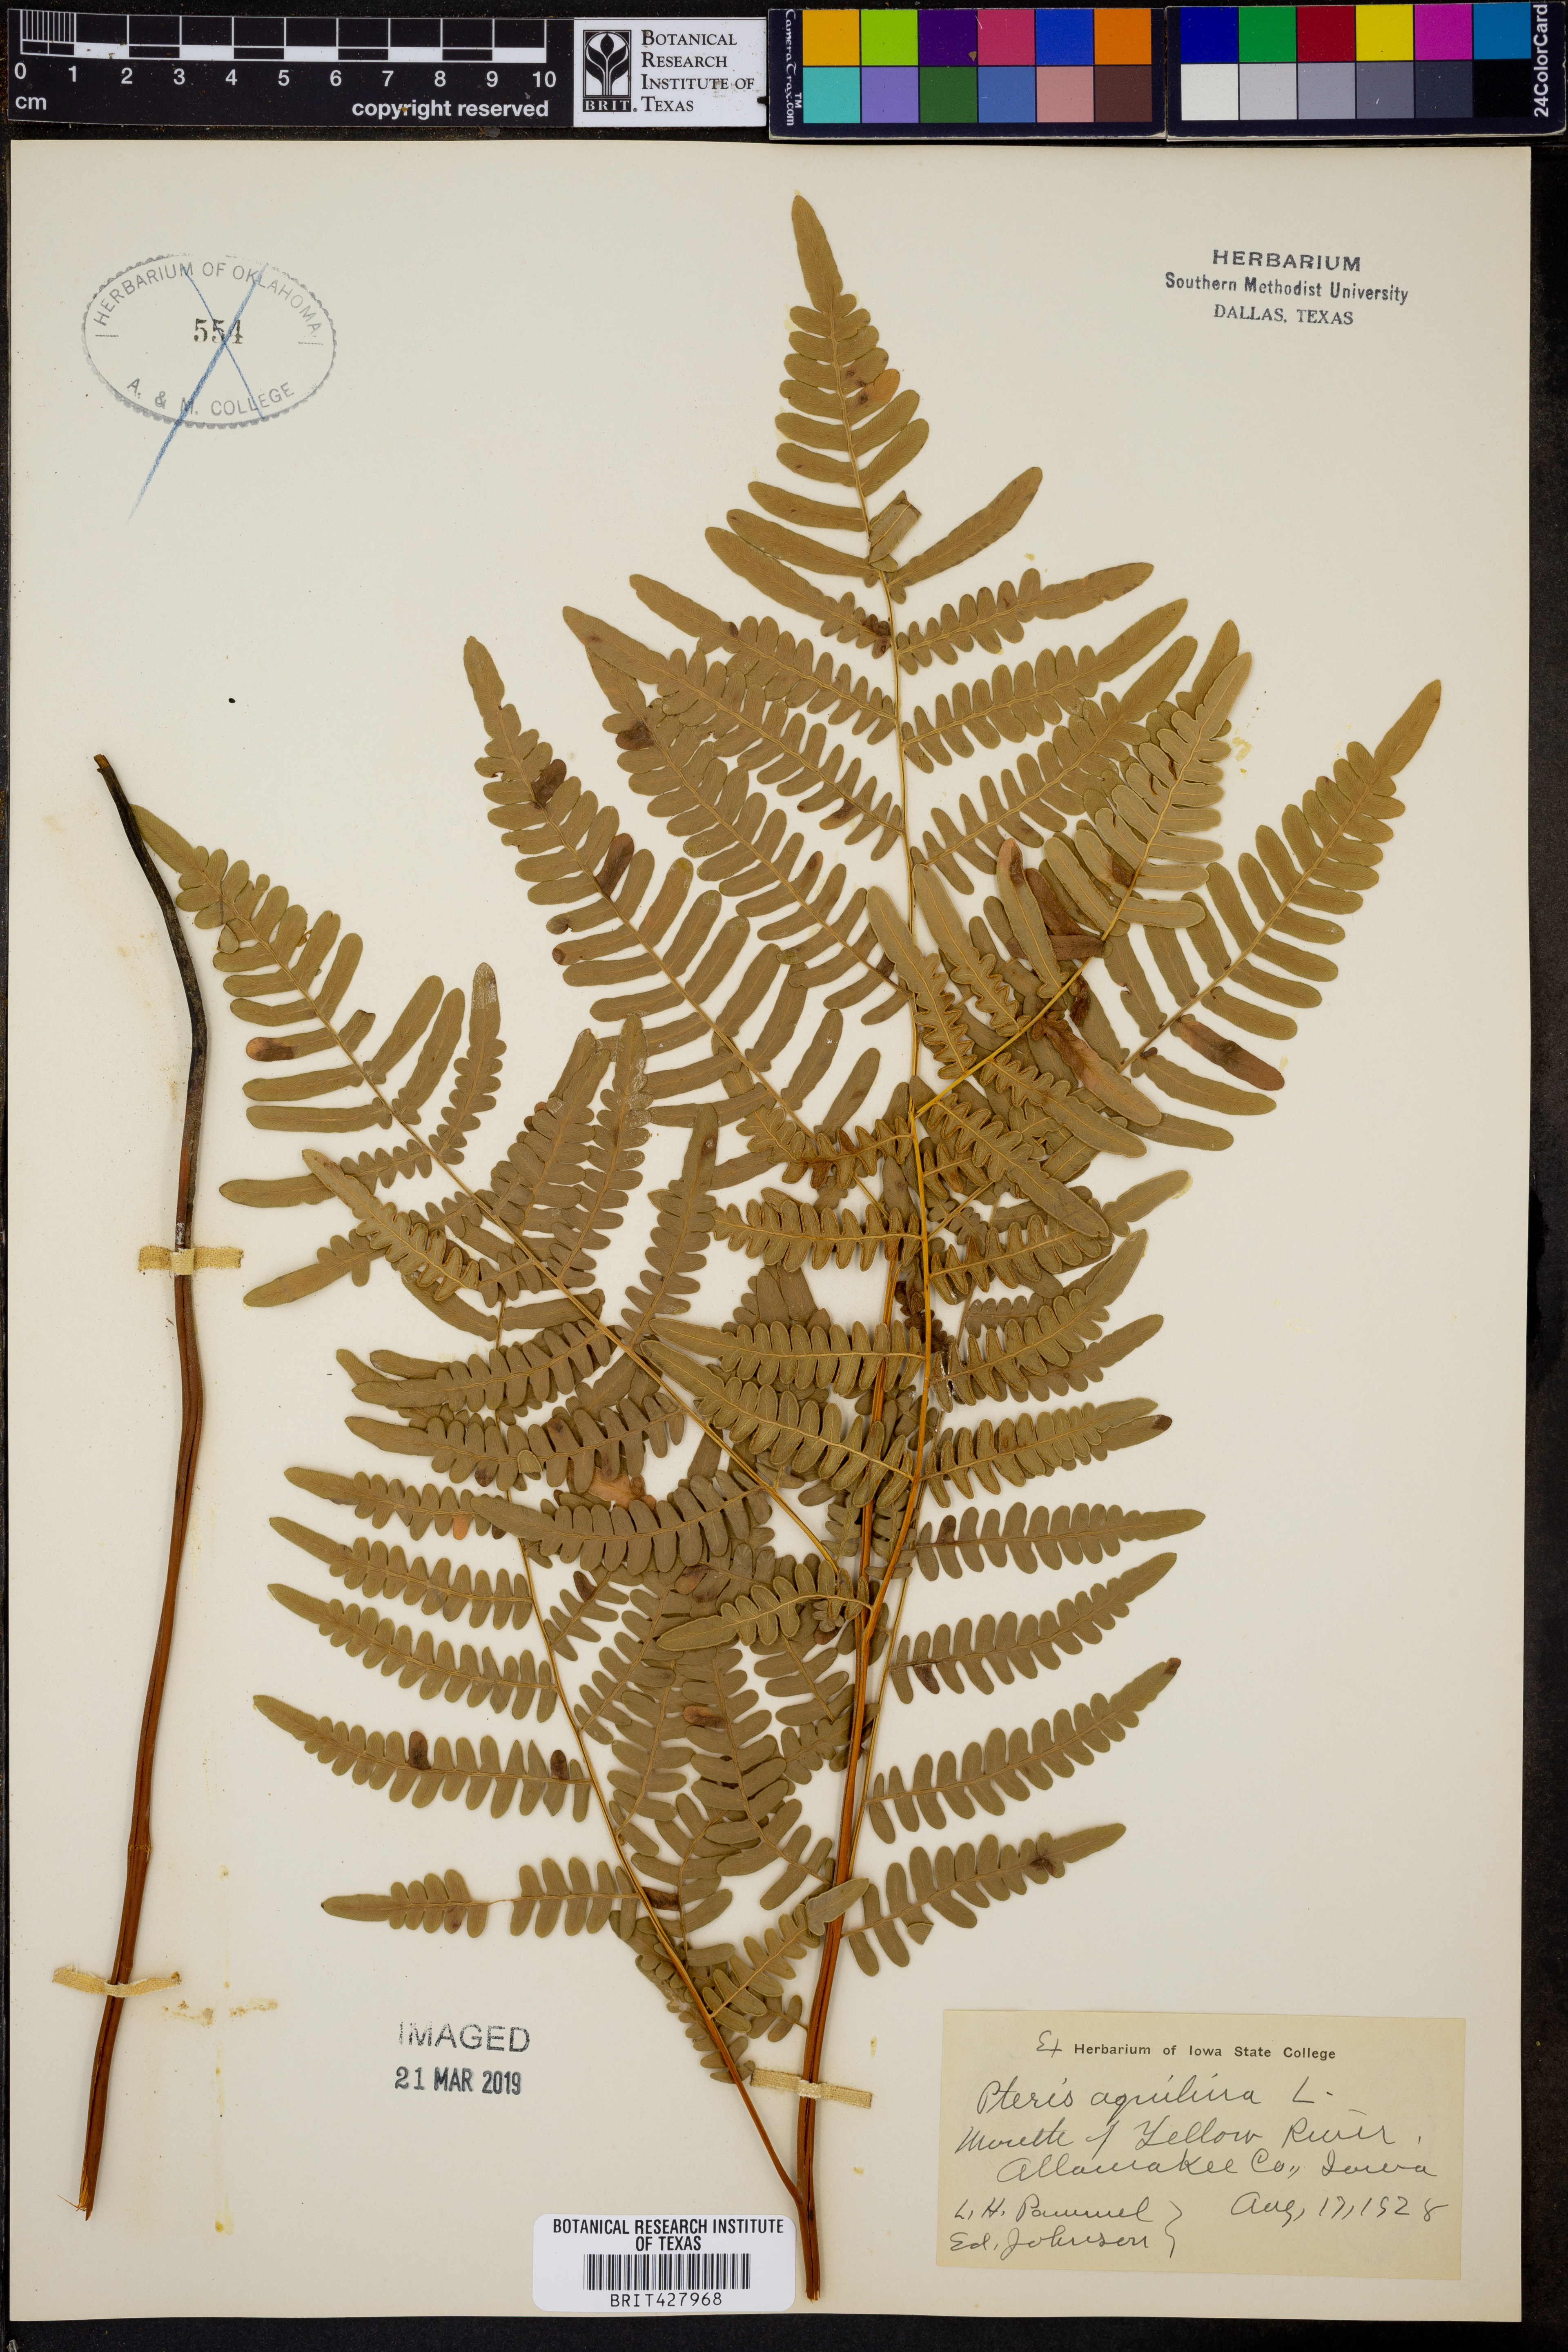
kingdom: Plantae
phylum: Tracheophyta
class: Polypodiopsida
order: Polypodiales
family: Dennstaedtiaceae
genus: Pteridium
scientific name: Pteridium aquilinum
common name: Bracken
